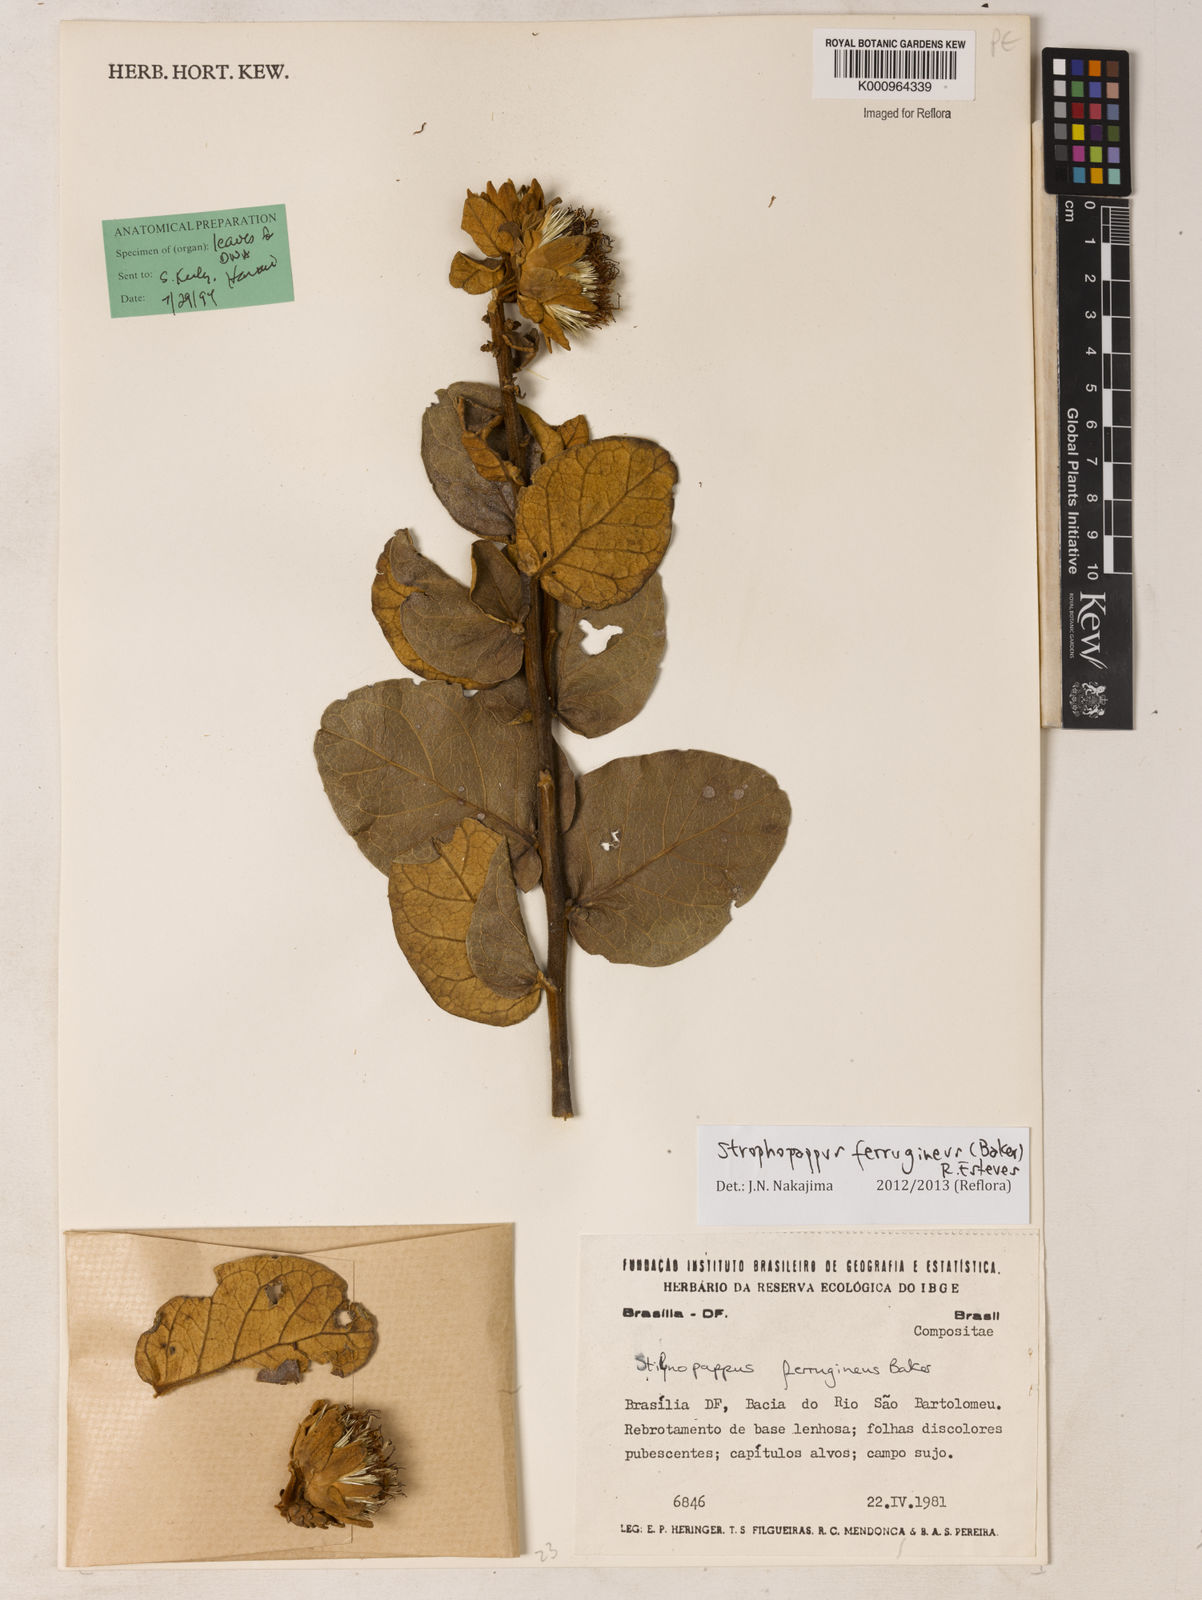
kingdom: Plantae
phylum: Tracheophyta
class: Magnoliopsida
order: Asterales
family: Asteraceae
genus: Stilpnopappus
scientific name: Stilpnopappus ferrugineus
